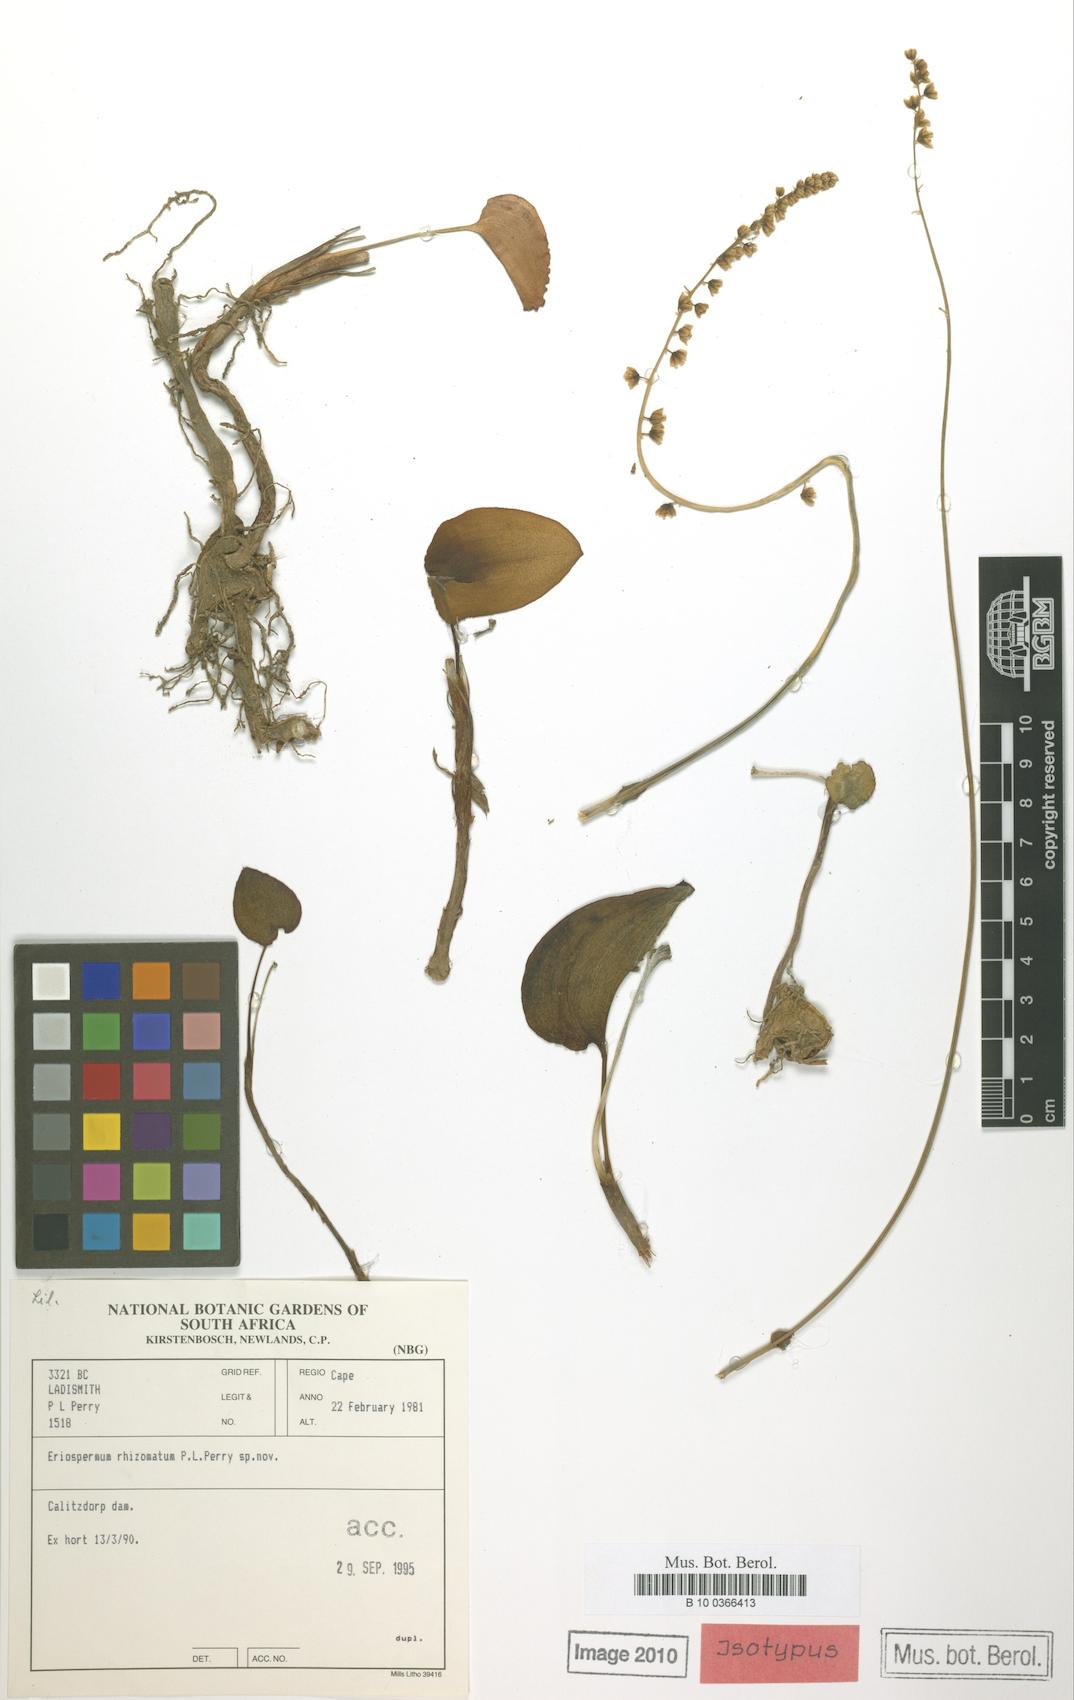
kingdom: Plantae
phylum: Tracheophyta
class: Liliopsida
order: Asparagales
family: Asparagaceae
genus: Eriospermum
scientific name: Eriospermum rhizomatum
